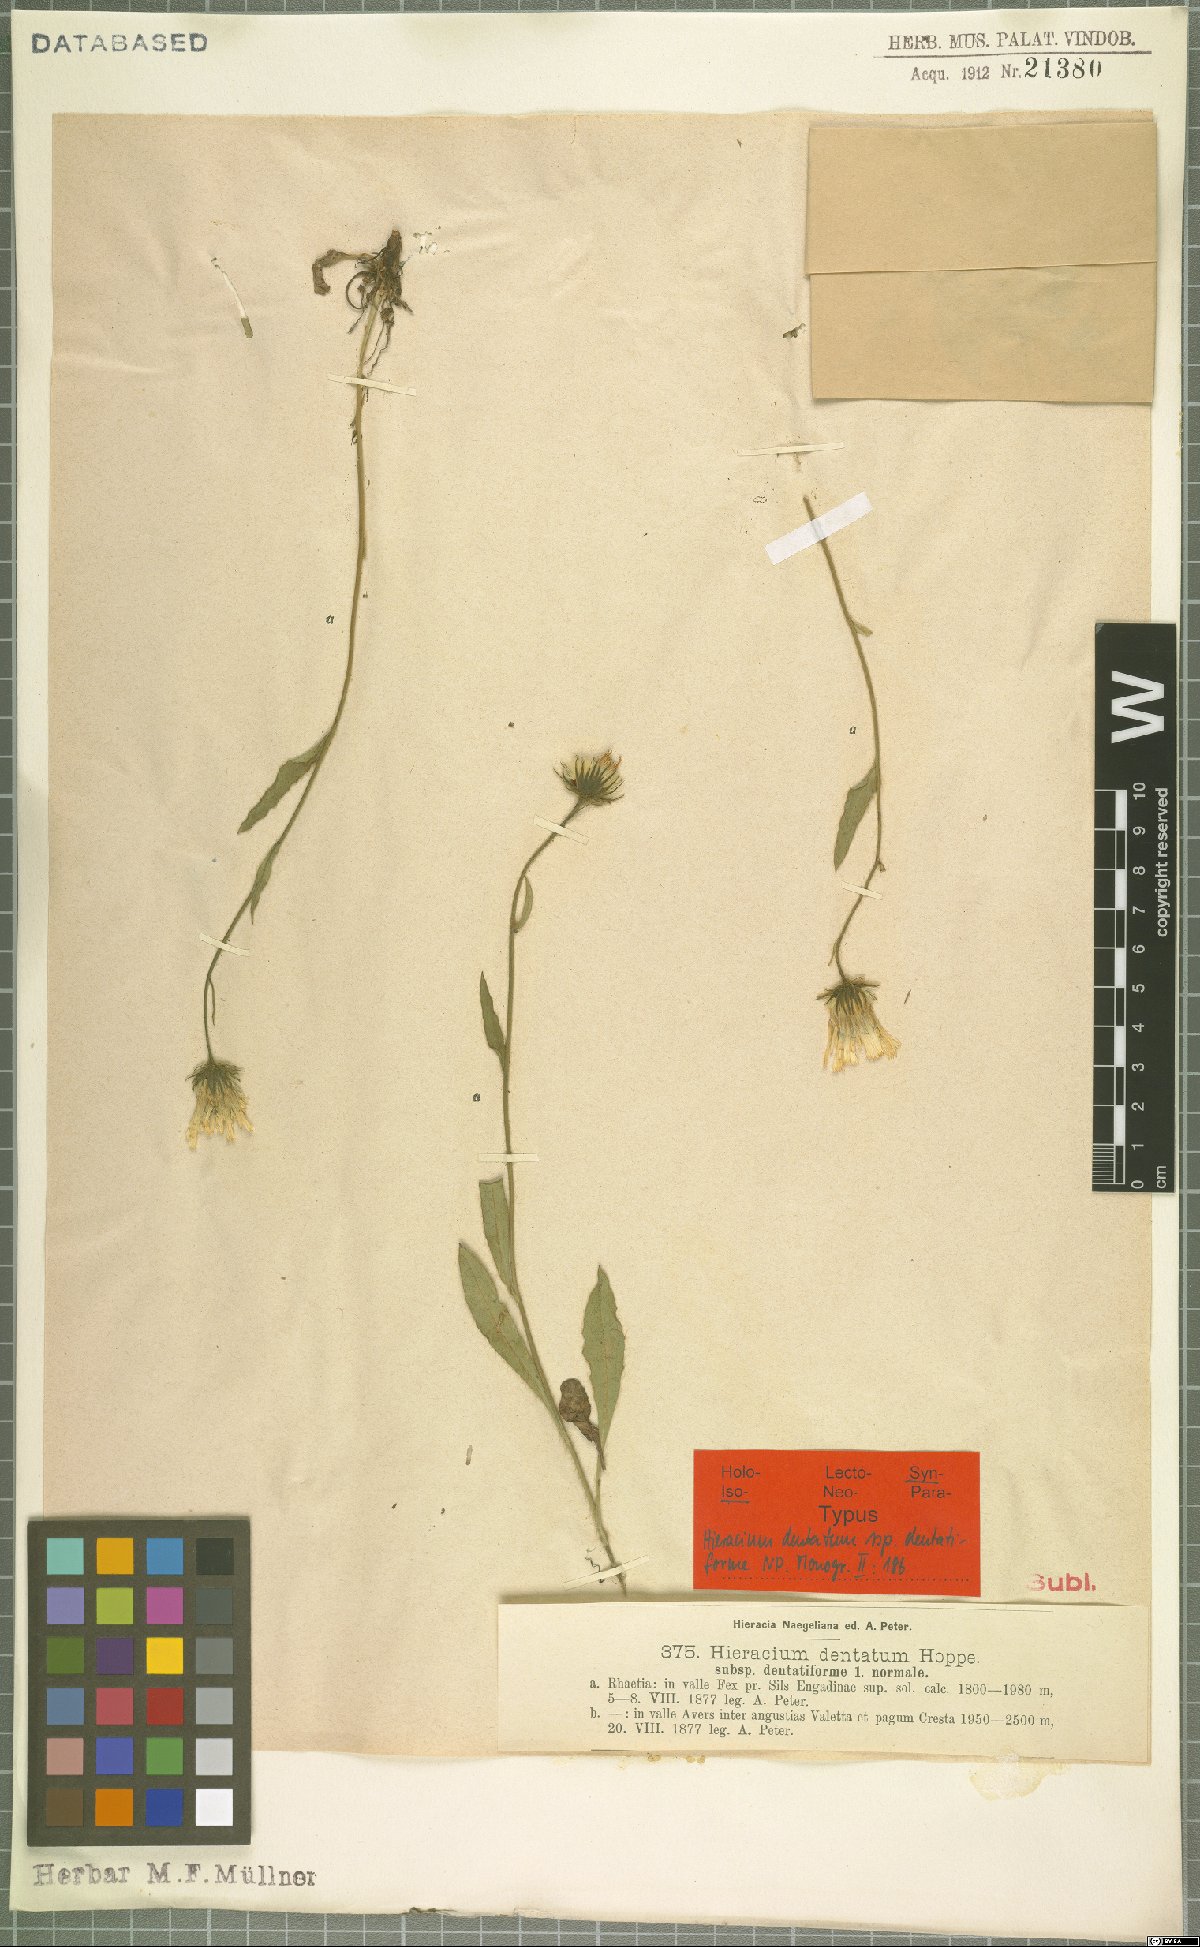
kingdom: Plantae
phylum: Tracheophyta
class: Magnoliopsida
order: Asterales
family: Asteraceae
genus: Hieracium
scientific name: Hieracium dentatum
